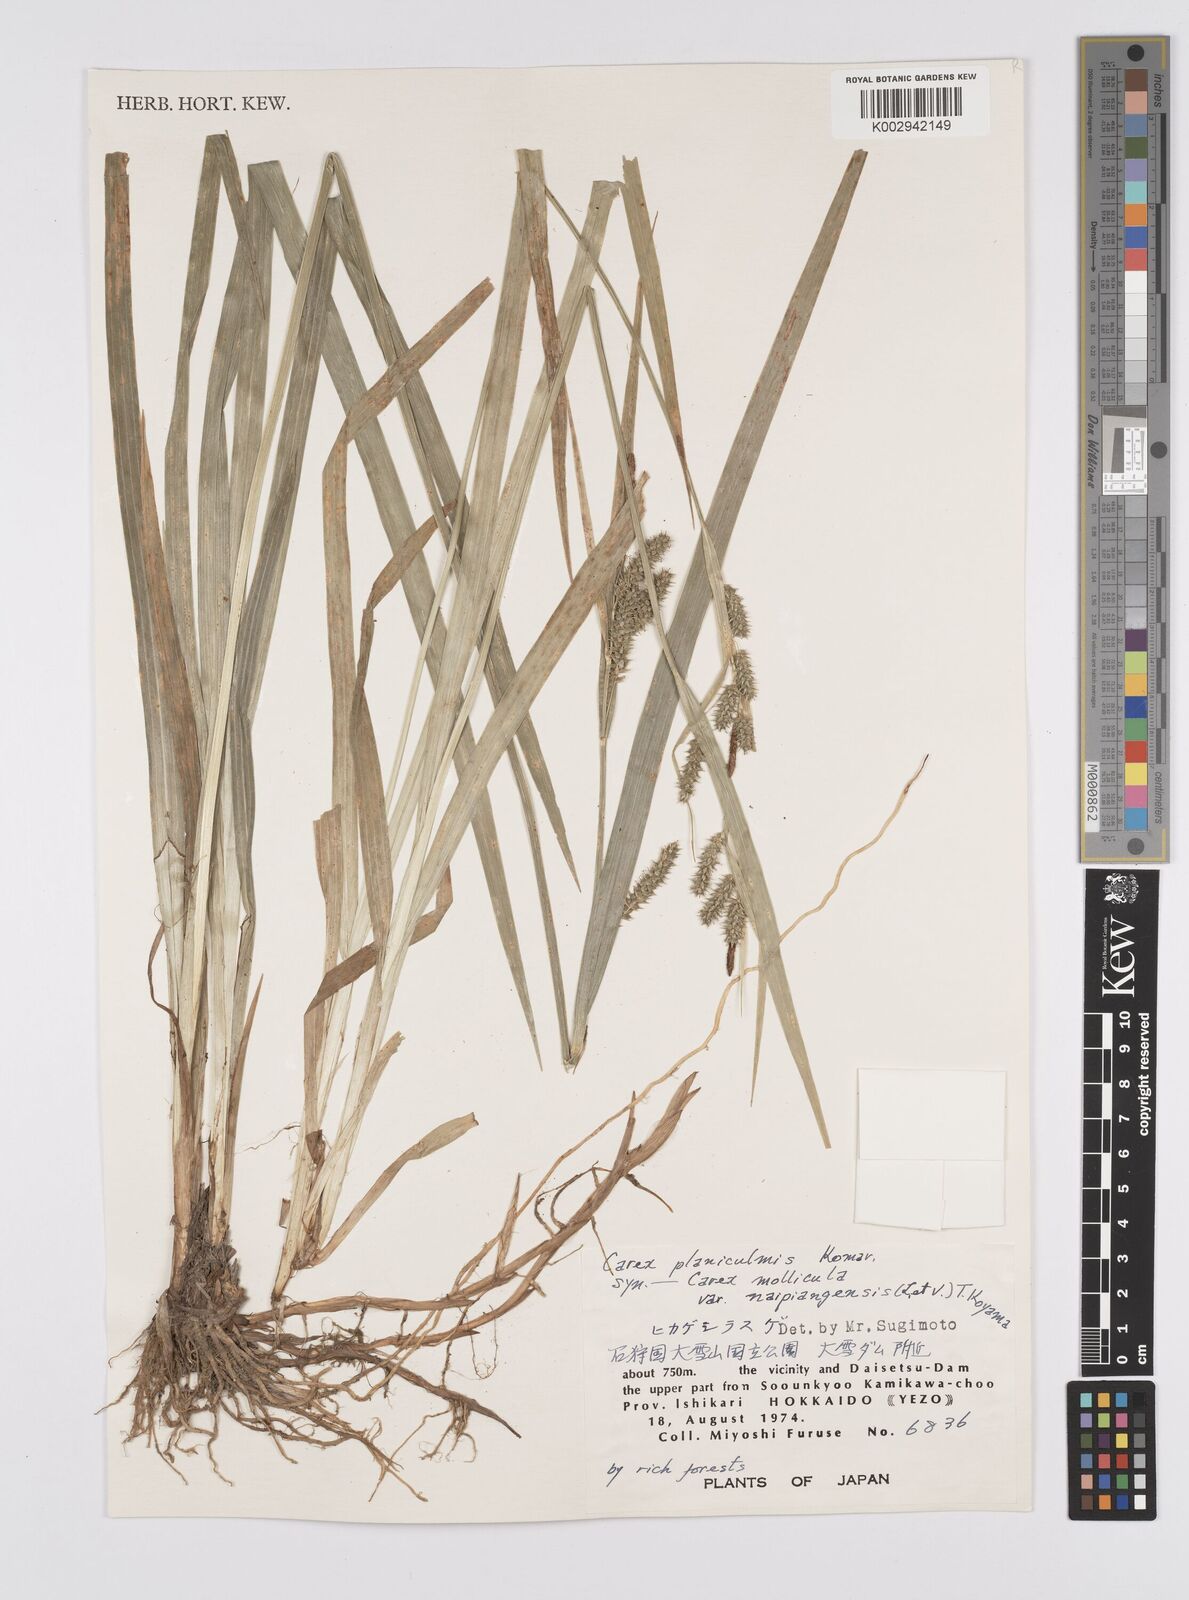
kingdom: Plantae
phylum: Tracheophyta
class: Liliopsida
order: Poales
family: Cyperaceae
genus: Carex
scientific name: Carex planiculmis
